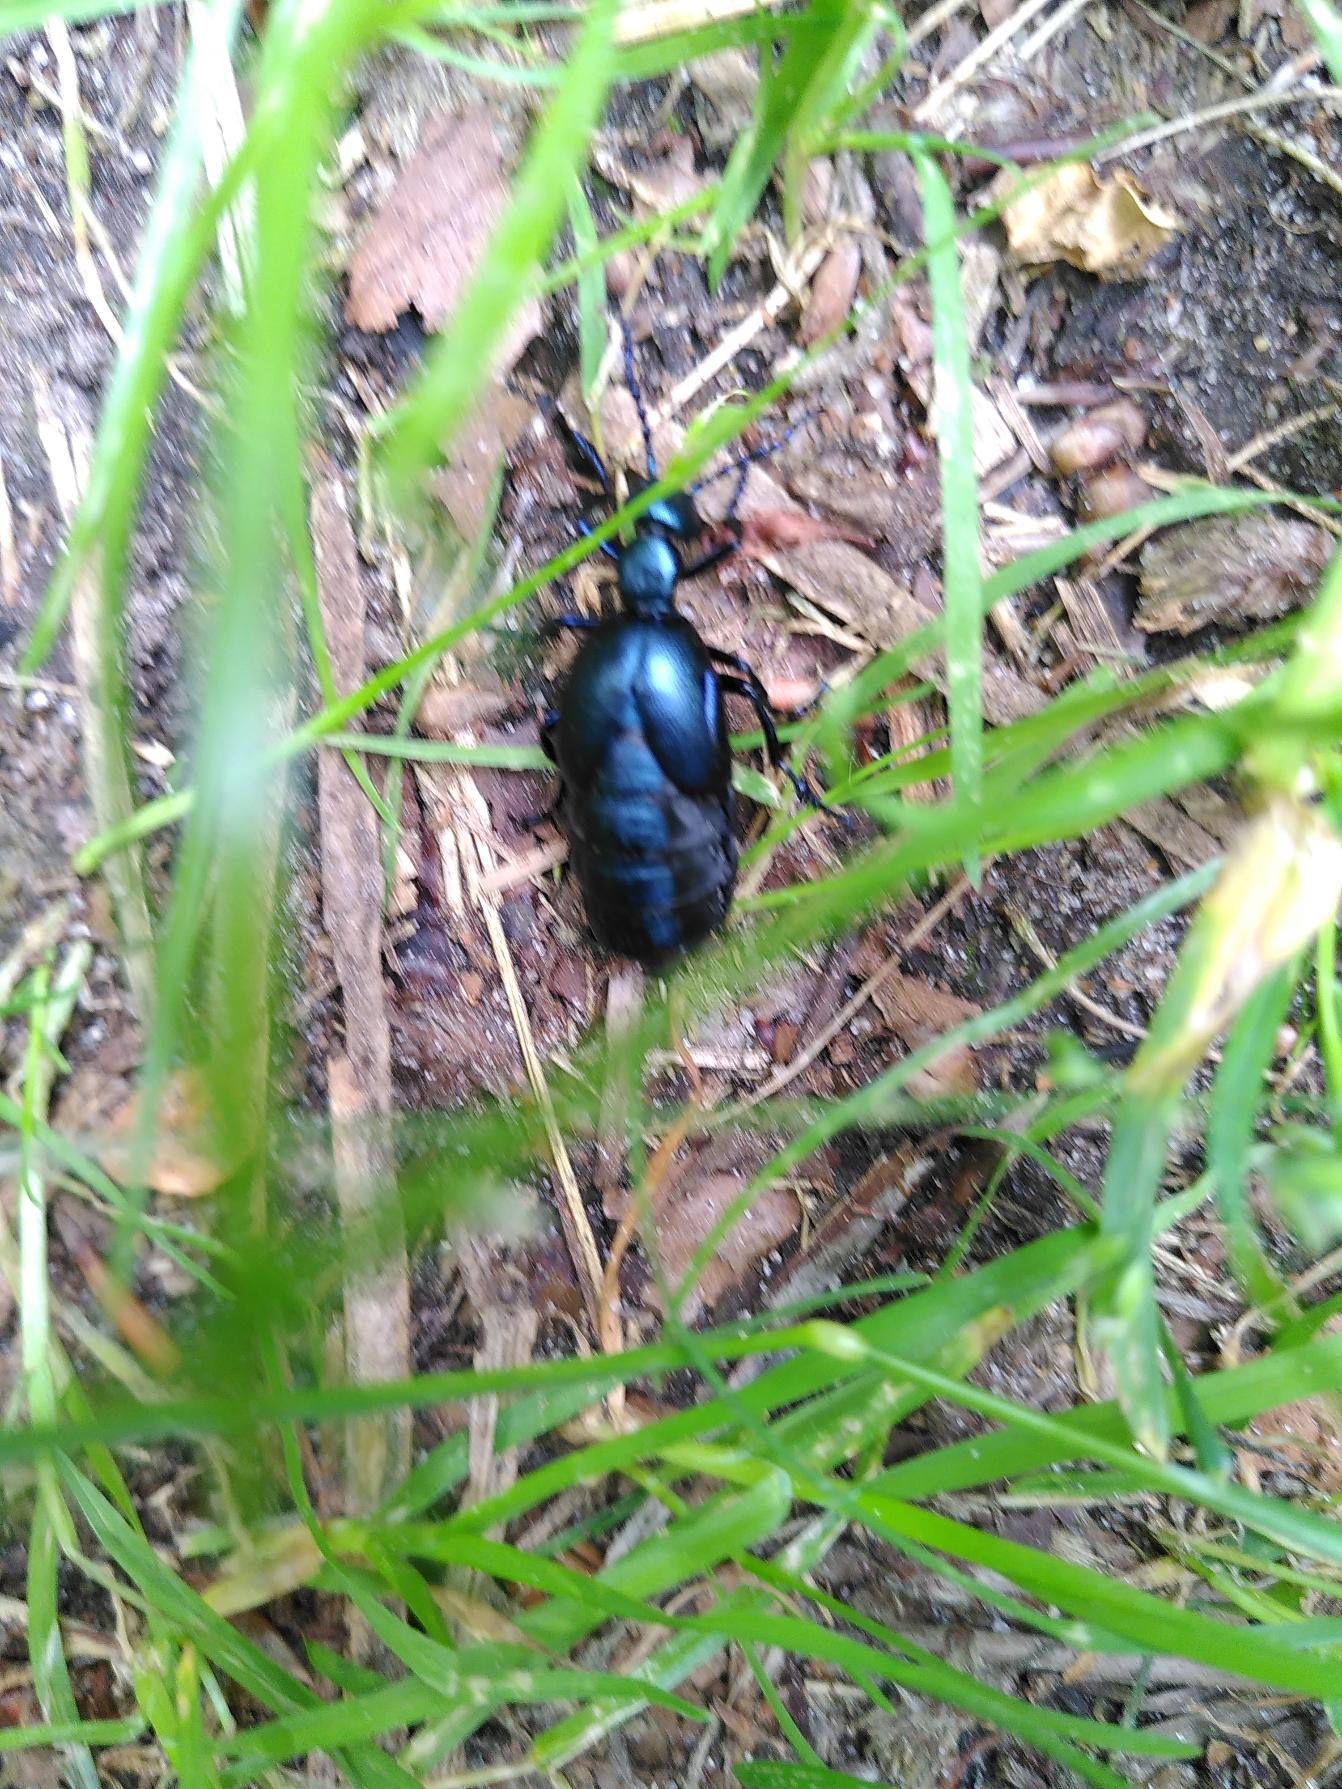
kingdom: Animalia
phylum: Arthropoda
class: Insecta
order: Coleoptera
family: Meloidae
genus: Meloe
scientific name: Meloe violaceus
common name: Blå oliebille
